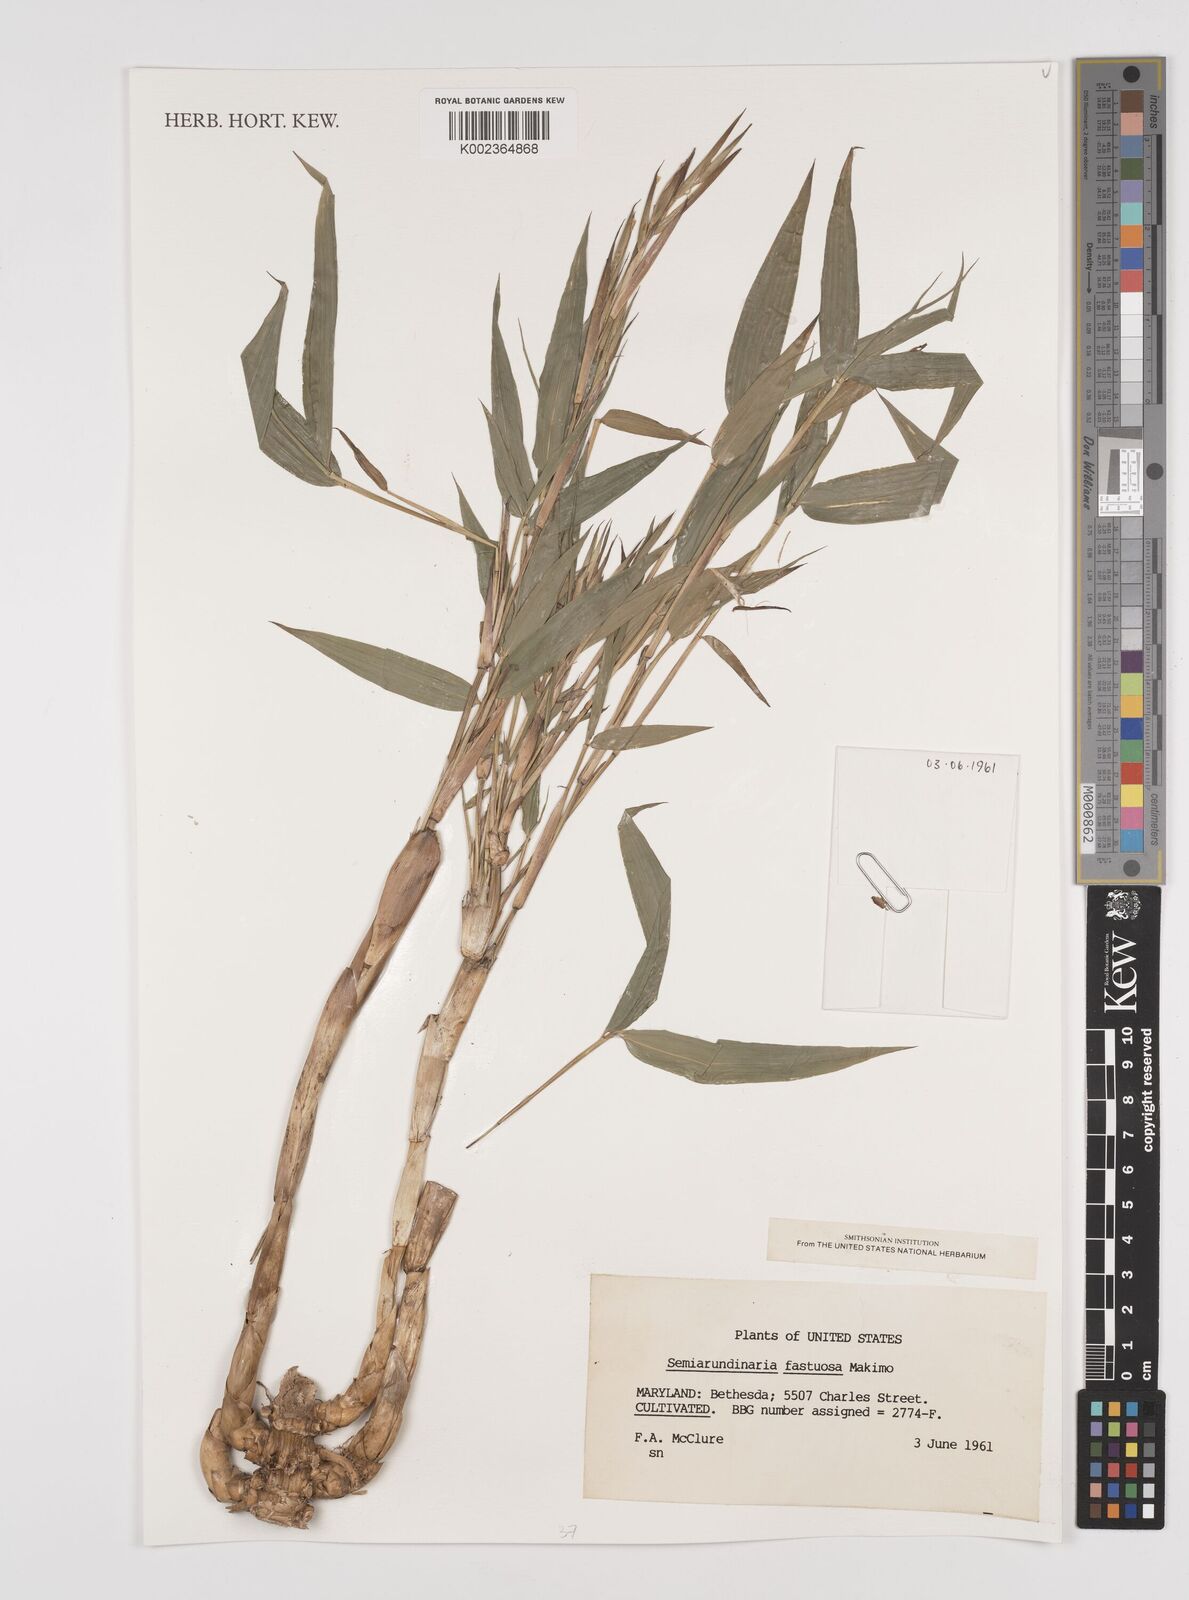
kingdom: Plantae
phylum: Tracheophyta
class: Liliopsida
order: Poales
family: Poaceae
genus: Semiarundinaria
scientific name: Semiarundinaria fastuosa
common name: Narihira bamboo
